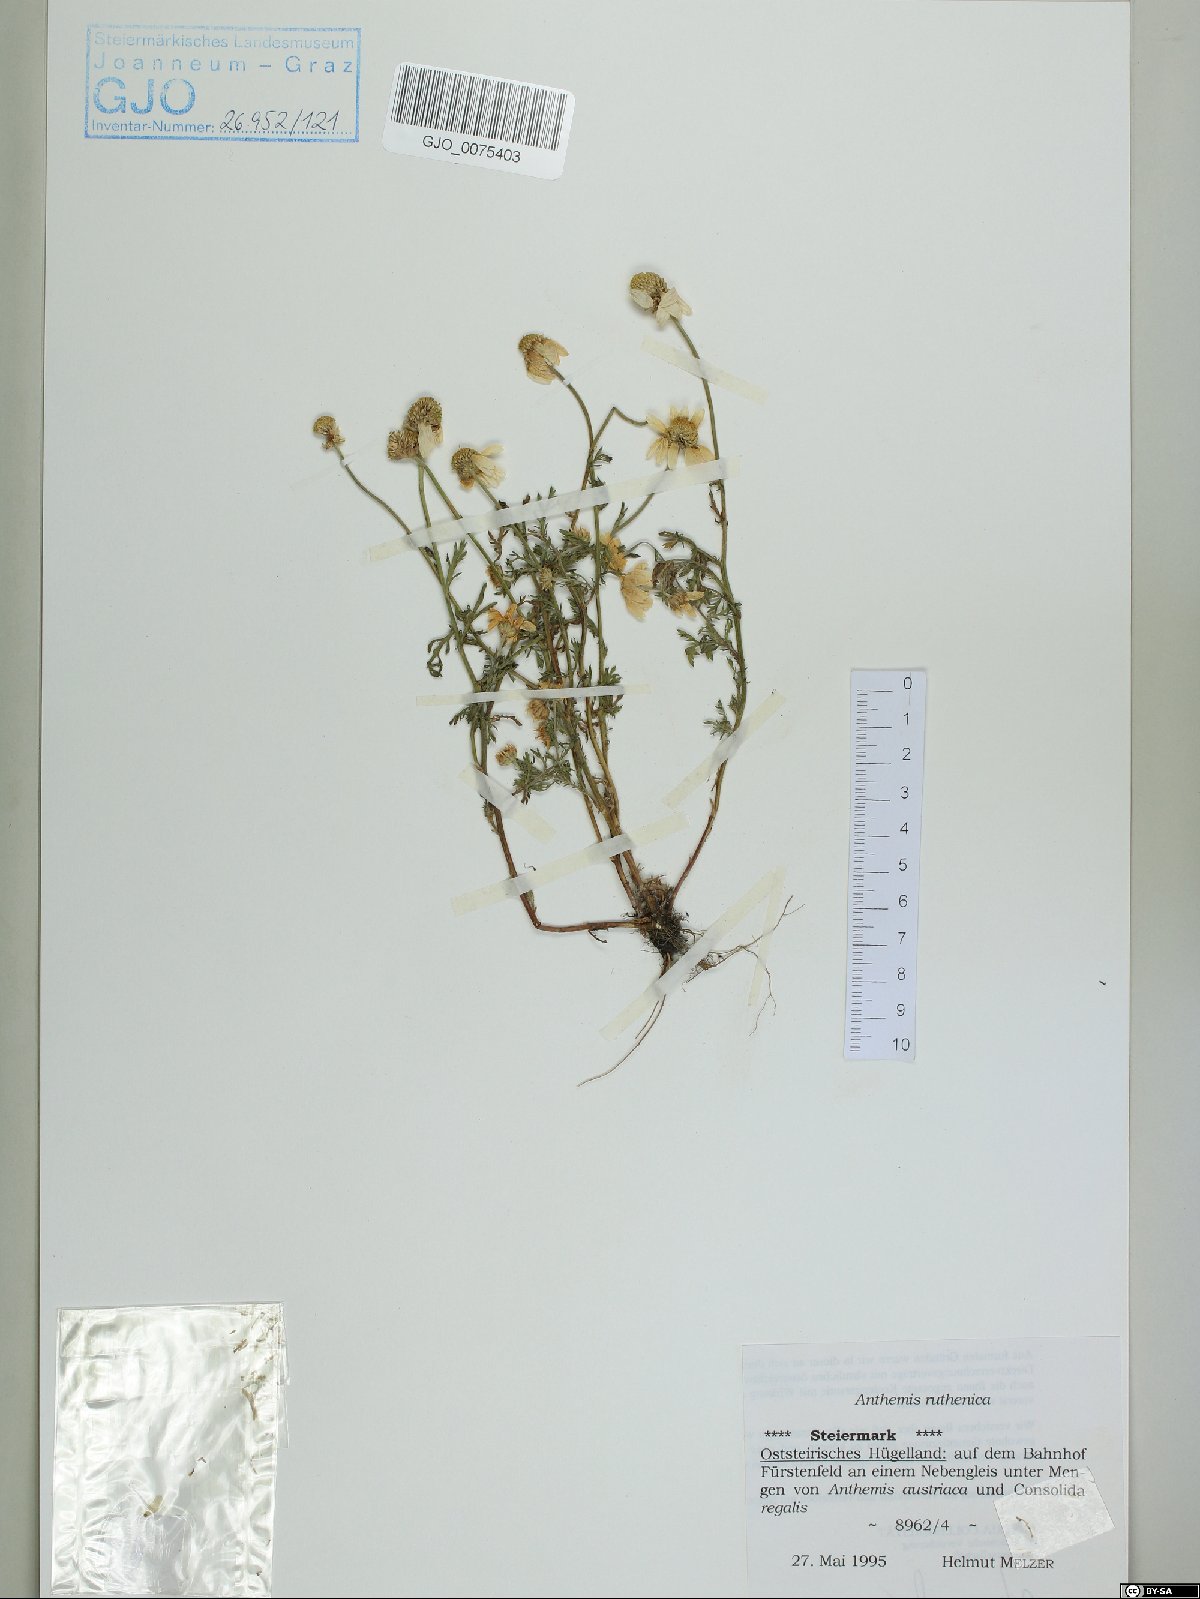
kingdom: Plantae
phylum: Tracheophyta
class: Magnoliopsida
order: Asterales
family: Asteraceae
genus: Anthemis
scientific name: Anthemis ruthenica
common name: Eastern chamomile
